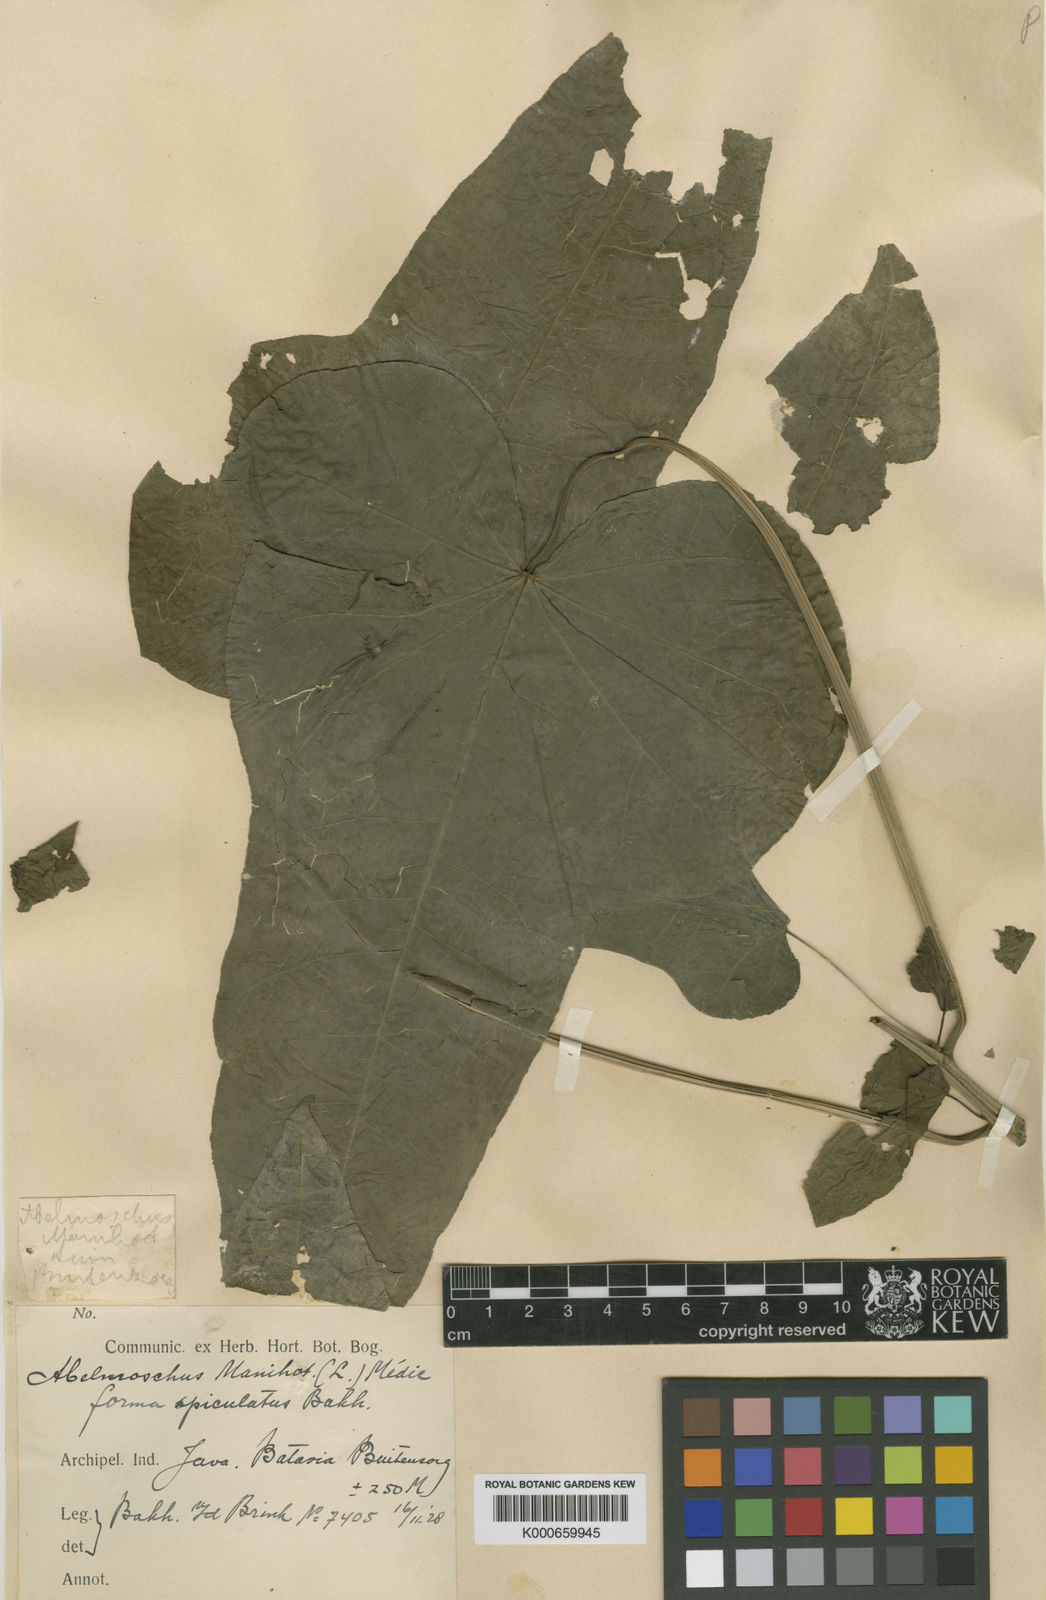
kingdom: Plantae
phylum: Tracheophyta
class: Magnoliopsida
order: Malvales
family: Malvaceae
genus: Abelmoschus
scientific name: Abelmoschus manihot
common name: Sunset muskmallow
